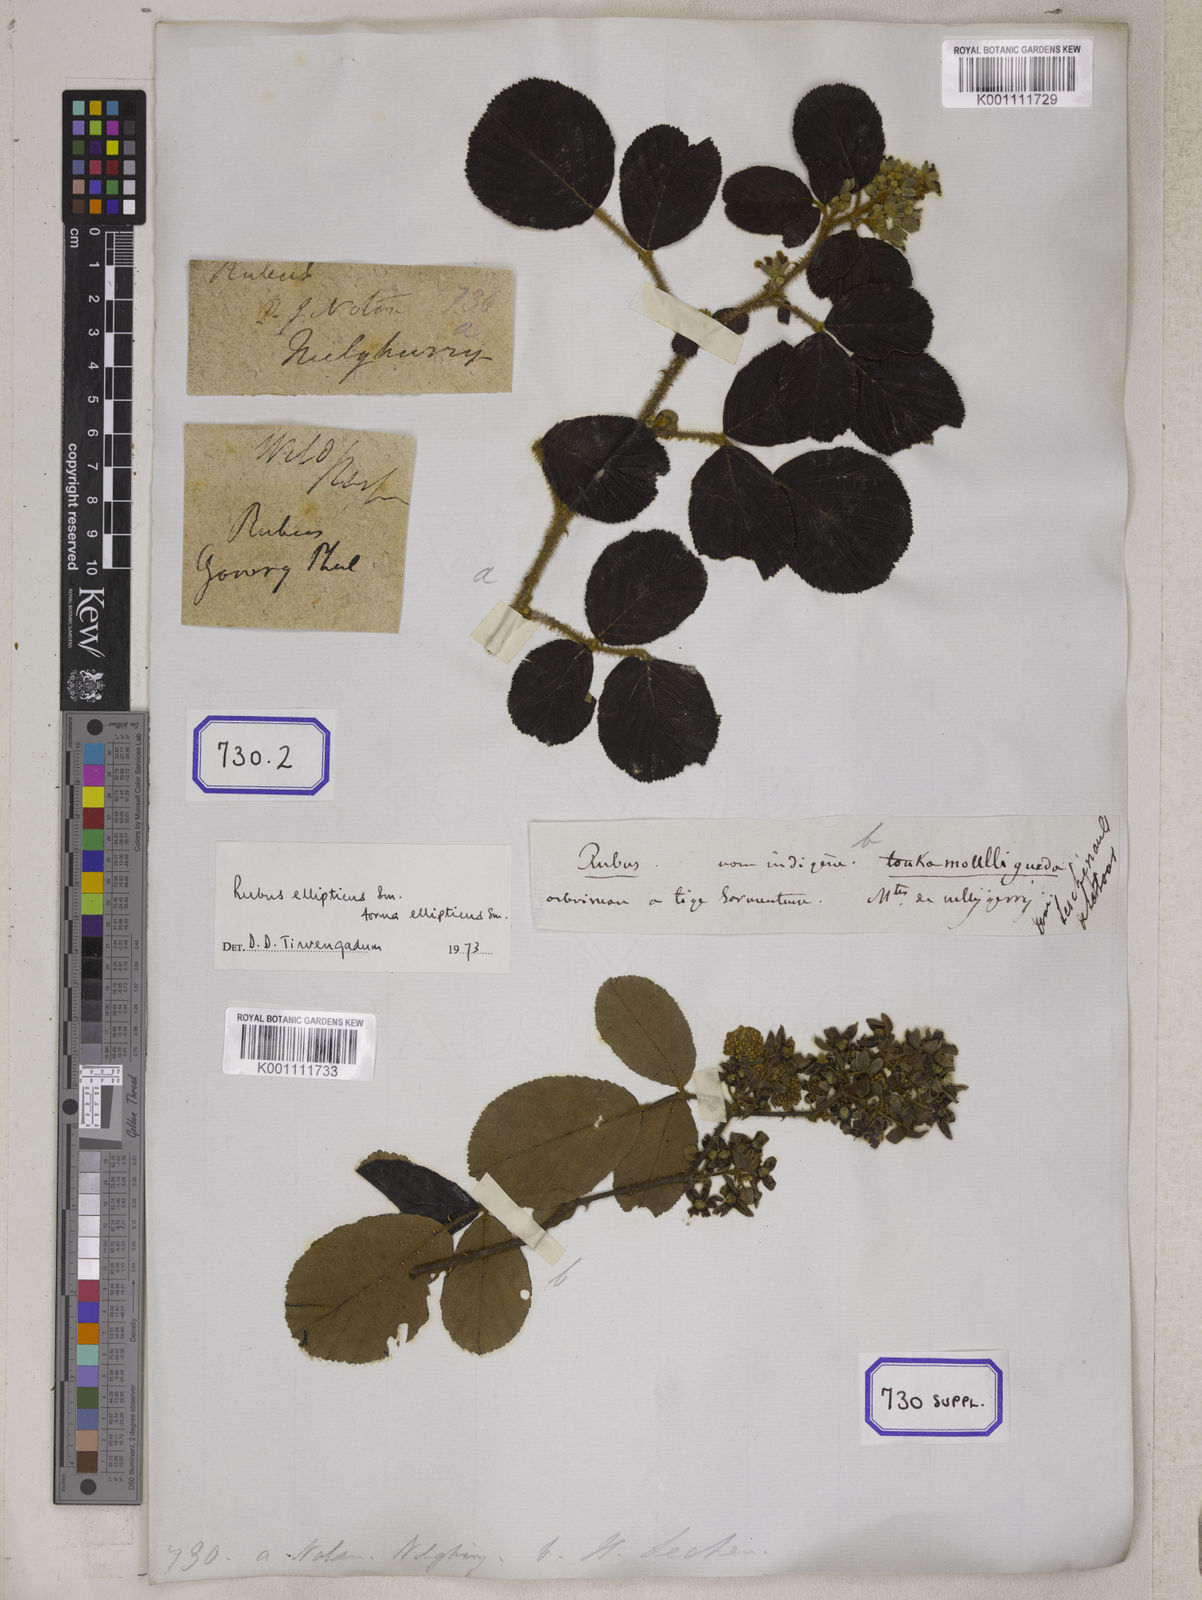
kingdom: Plantae
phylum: Tracheophyta
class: Magnoliopsida
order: Rosales
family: Rosaceae
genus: Rubus
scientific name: Rubus
